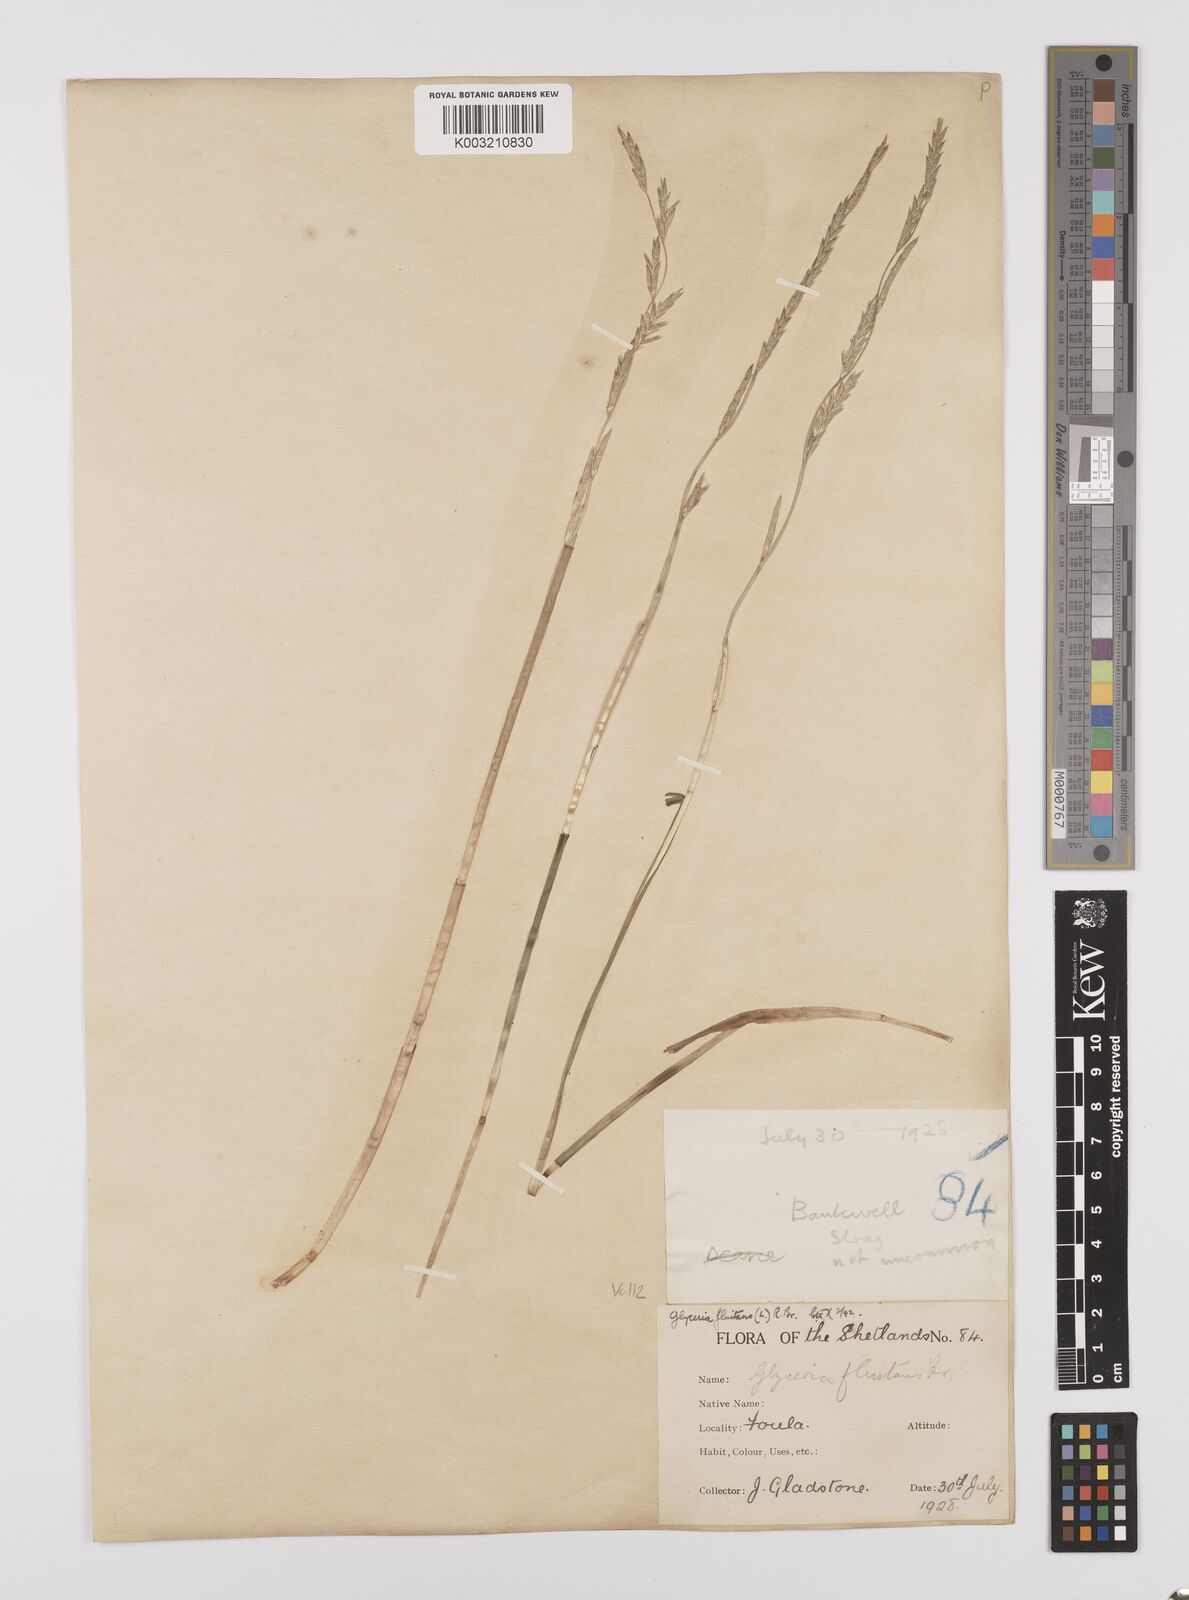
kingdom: Plantae
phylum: Tracheophyta
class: Liliopsida
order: Poales
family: Poaceae
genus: Glyceria
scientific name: Glyceria fluitans
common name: Floating sweet-grass
